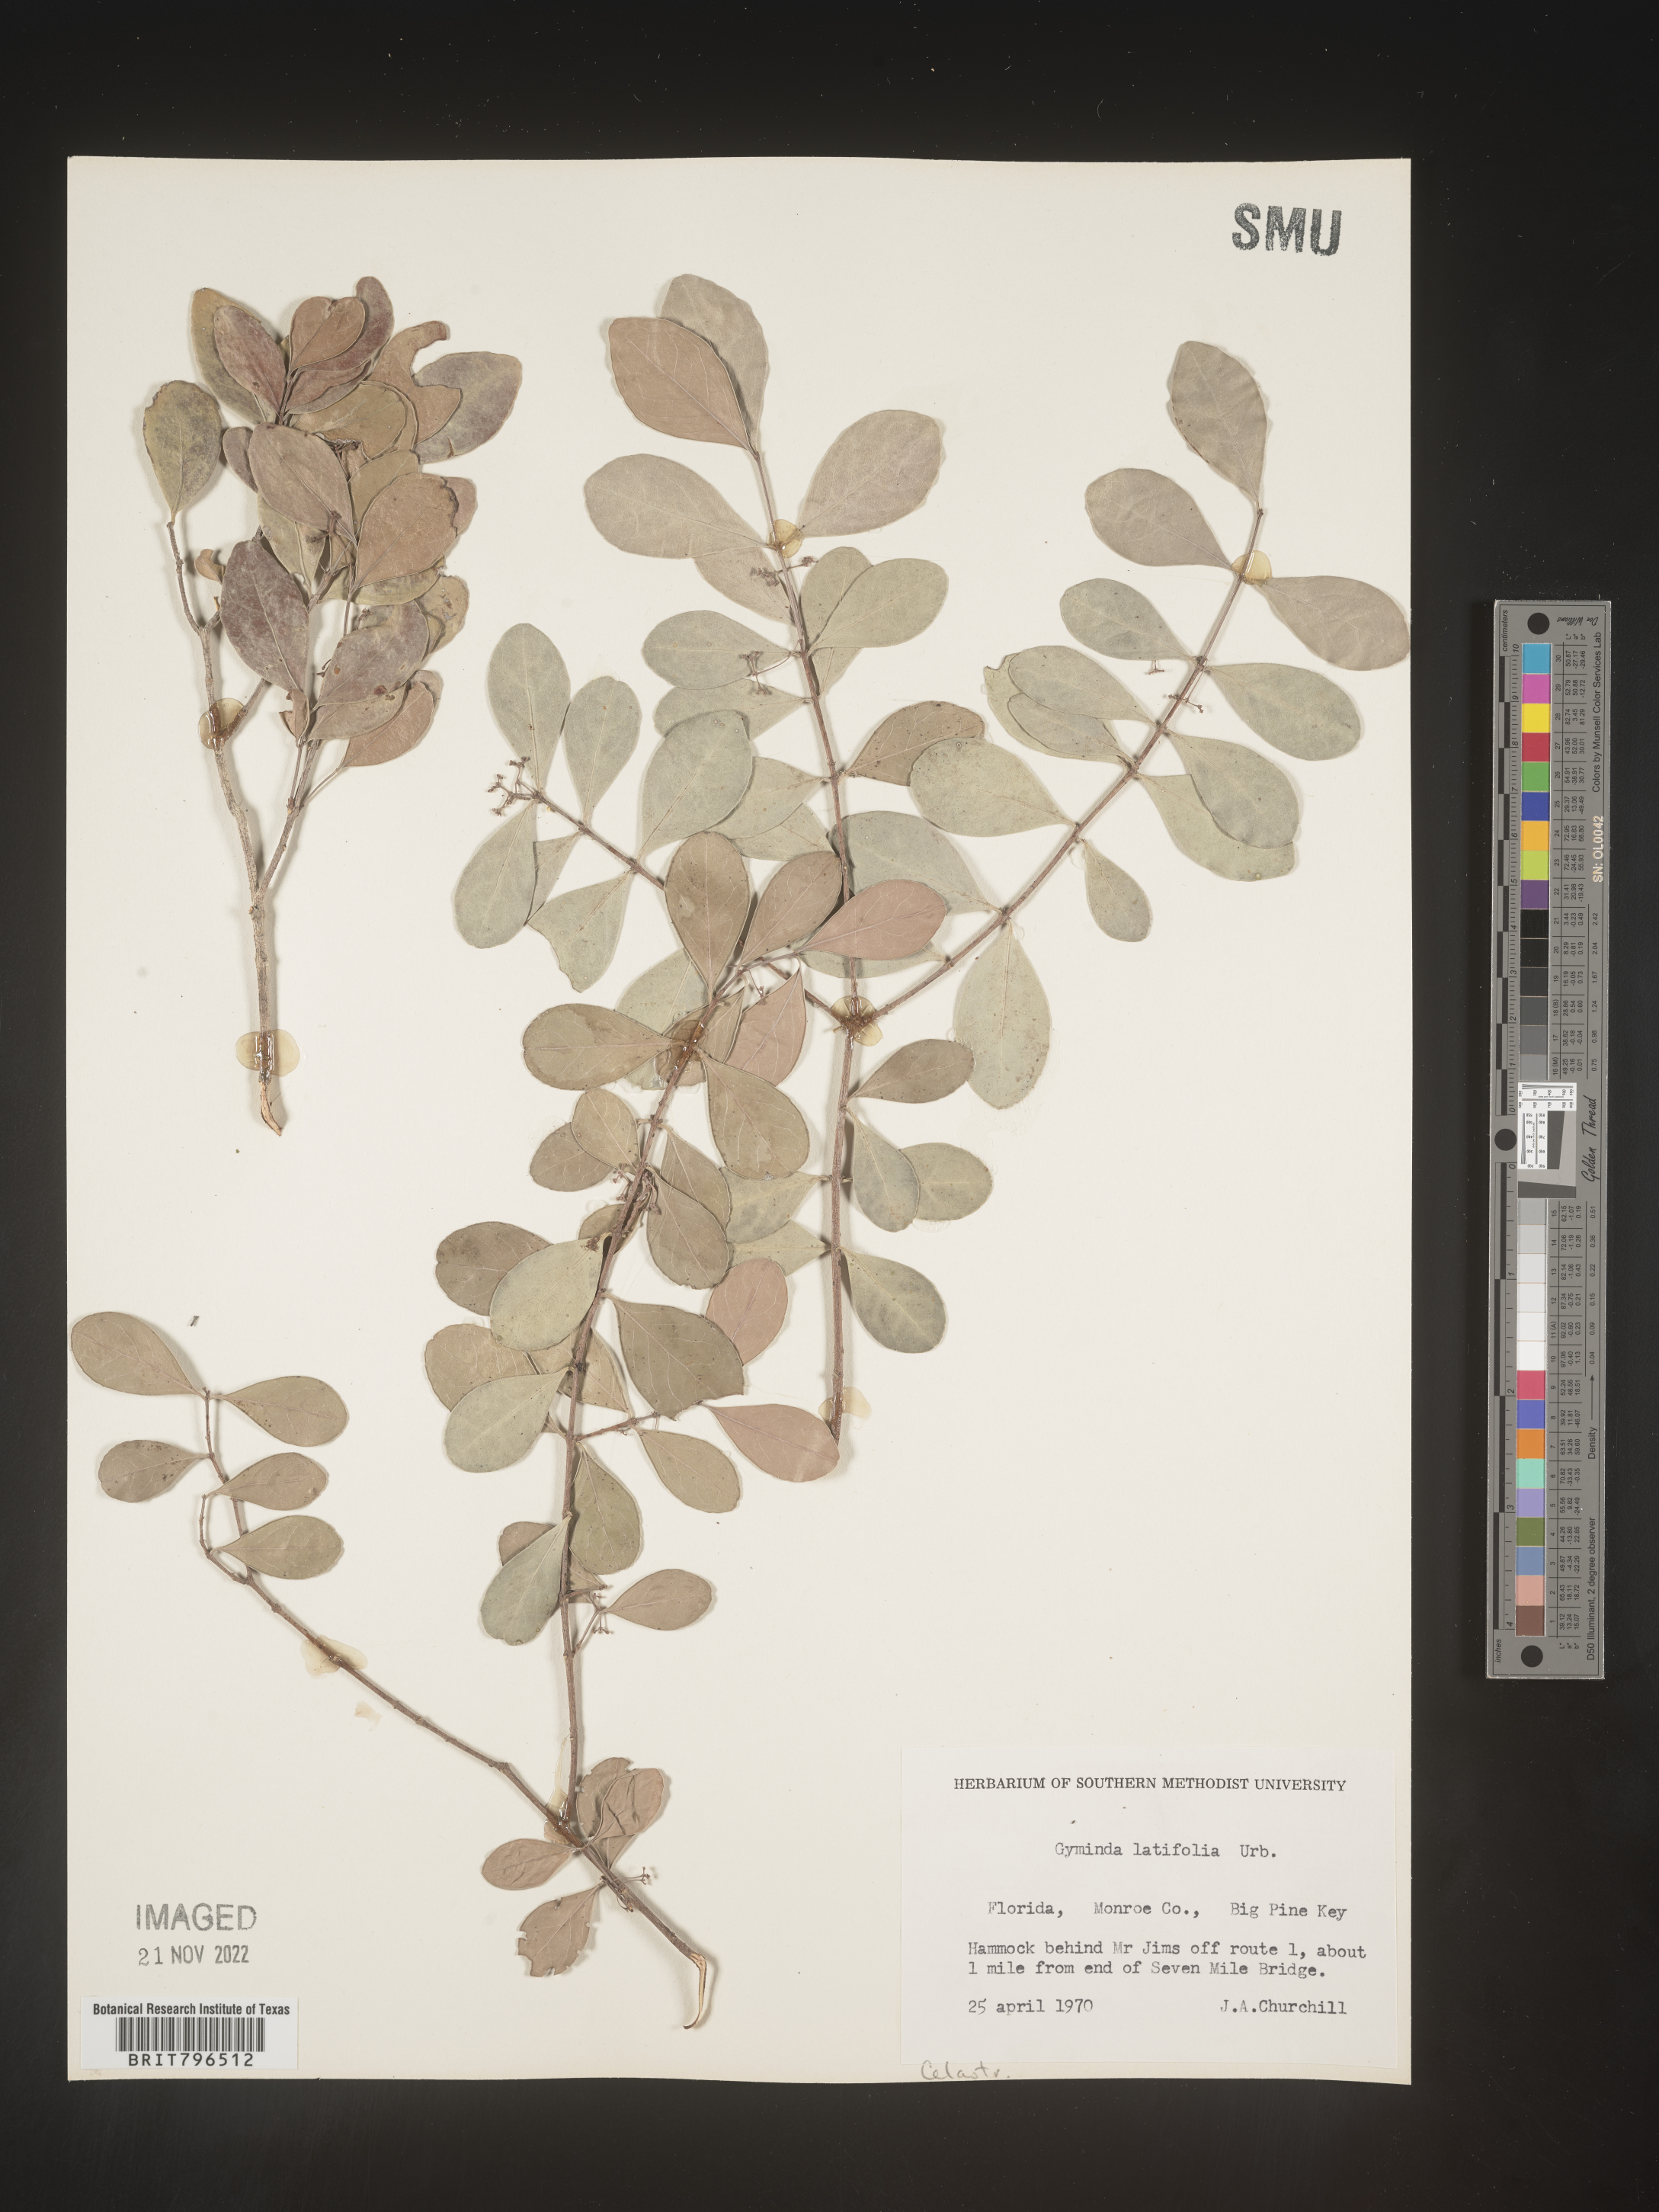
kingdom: Plantae
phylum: Tracheophyta
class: Magnoliopsida
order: Celastrales
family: Celastraceae
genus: Gyminda
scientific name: Gyminda
